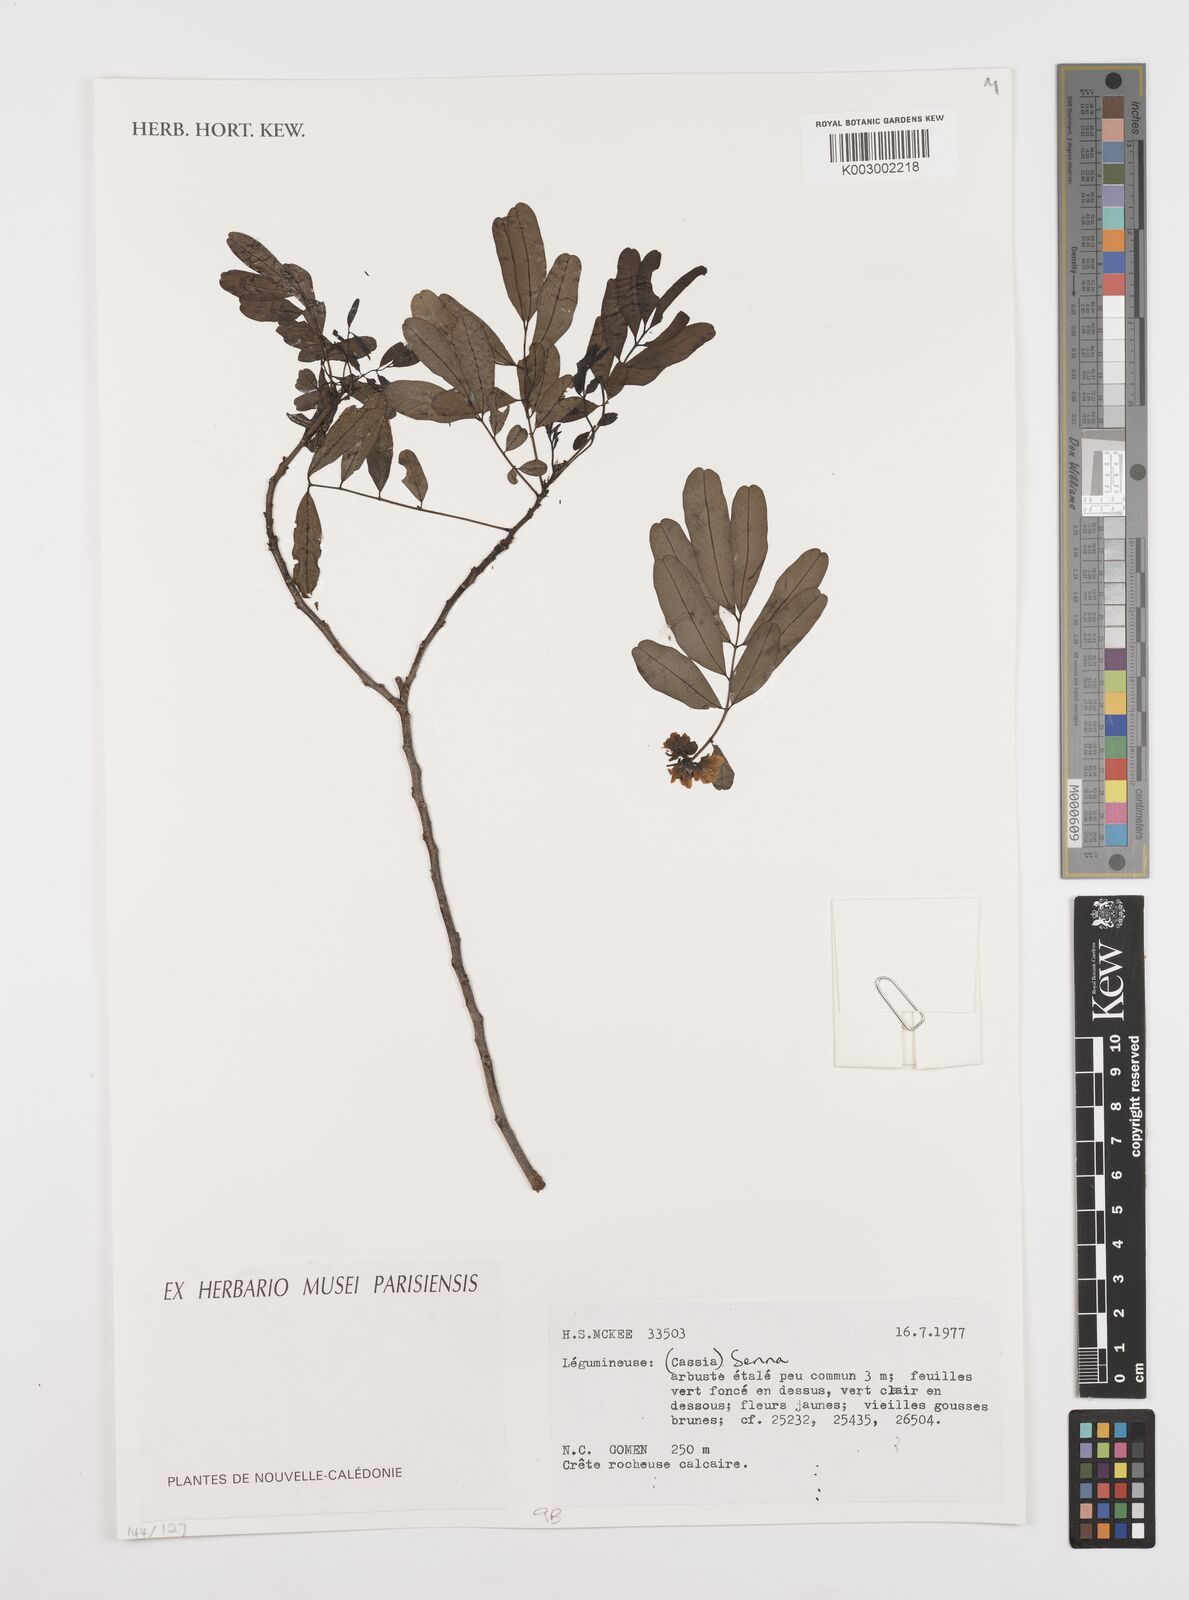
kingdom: Plantae
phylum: Tracheophyta
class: Magnoliopsida
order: Fabales
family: Fabaceae
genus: Cassia
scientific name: Cassia
